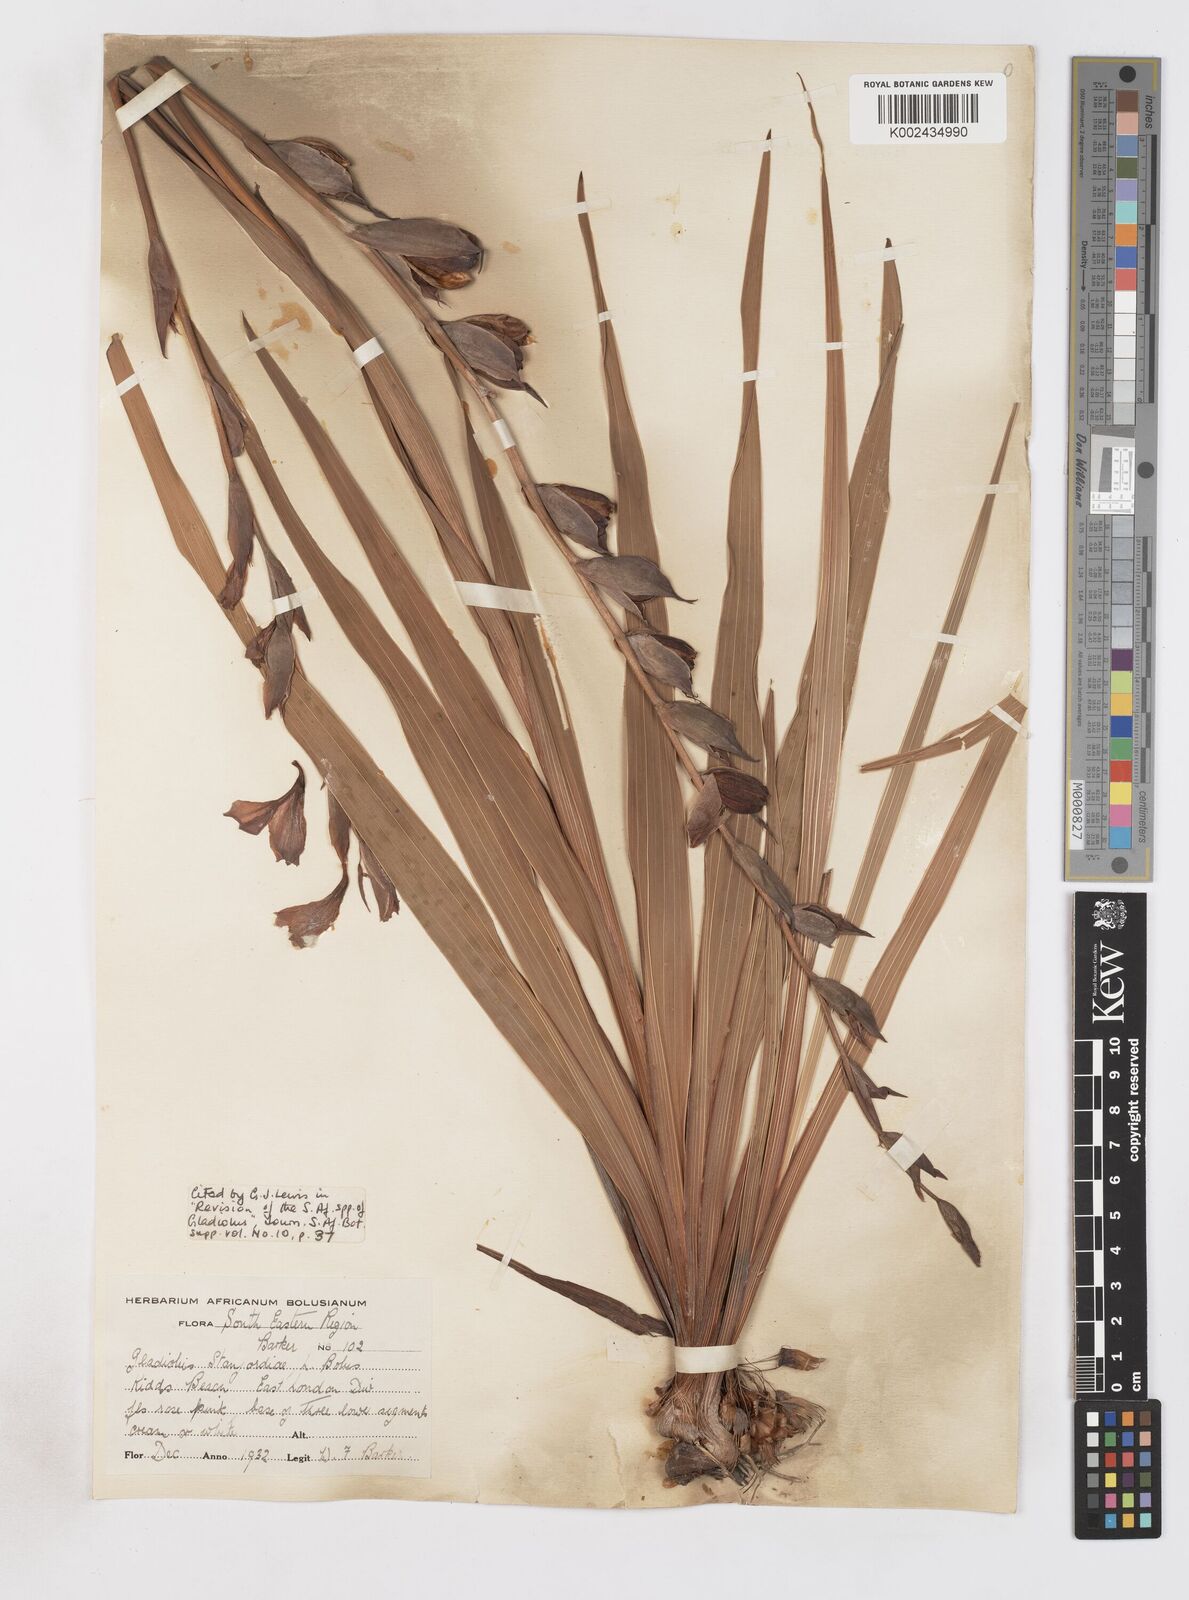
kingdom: Plantae
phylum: Tracheophyta
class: Liliopsida
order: Asparagales
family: Iridaceae
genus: Gladiolus
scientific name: Gladiolus ochroleucus
